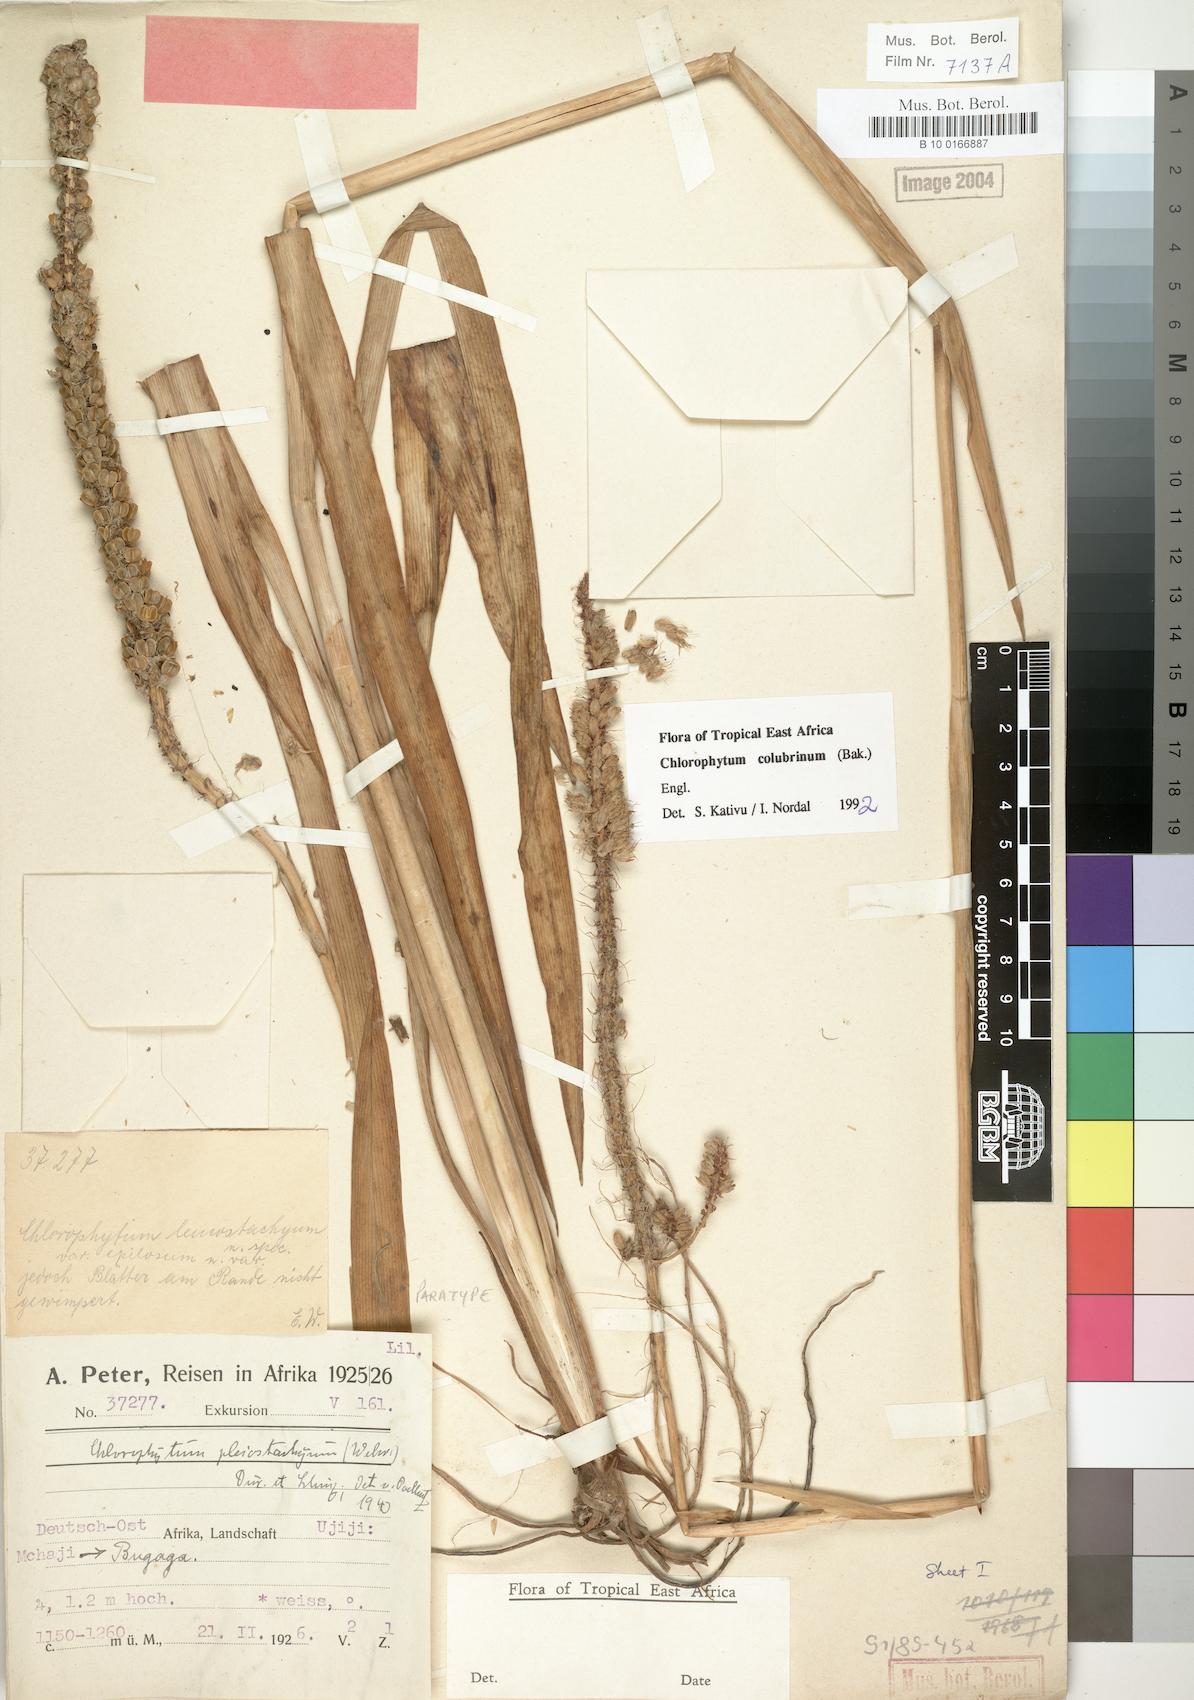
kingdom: Plantae
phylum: Tracheophyta
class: Liliopsida
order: Asparagales
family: Asparagaceae
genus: Chlorophytum
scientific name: Chlorophytum colubrinum
